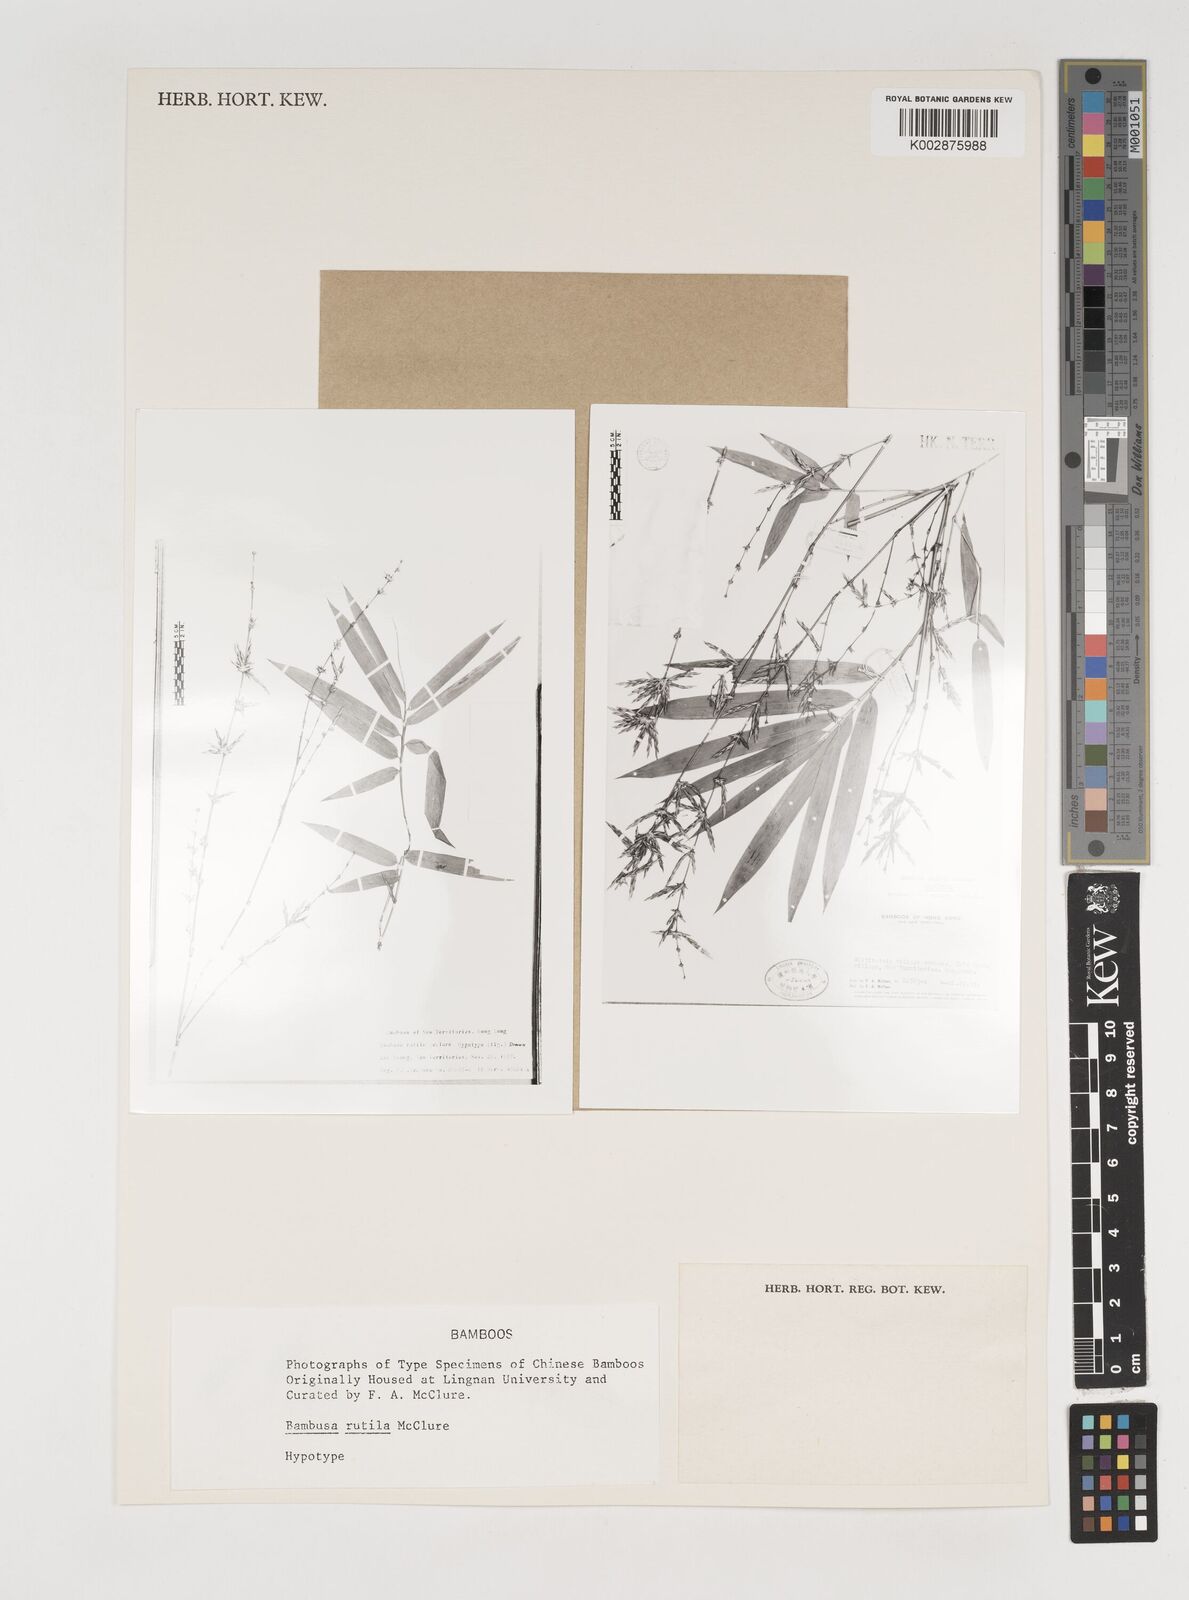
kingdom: Plantae
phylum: Tracheophyta
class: Liliopsida
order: Poales
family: Poaceae
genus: Bambusa
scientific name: Bambusa rutila
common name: Muk bamboo
